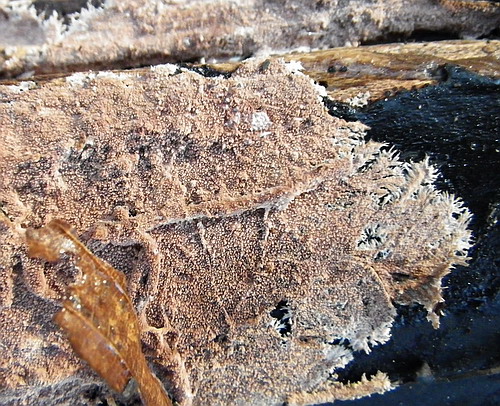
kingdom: Fungi
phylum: Basidiomycota
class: Agaricomycetes
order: Polyporales
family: Steccherinaceae
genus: Steccherinum
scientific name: Steccherinum fimbriatum
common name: trådet skønpig
